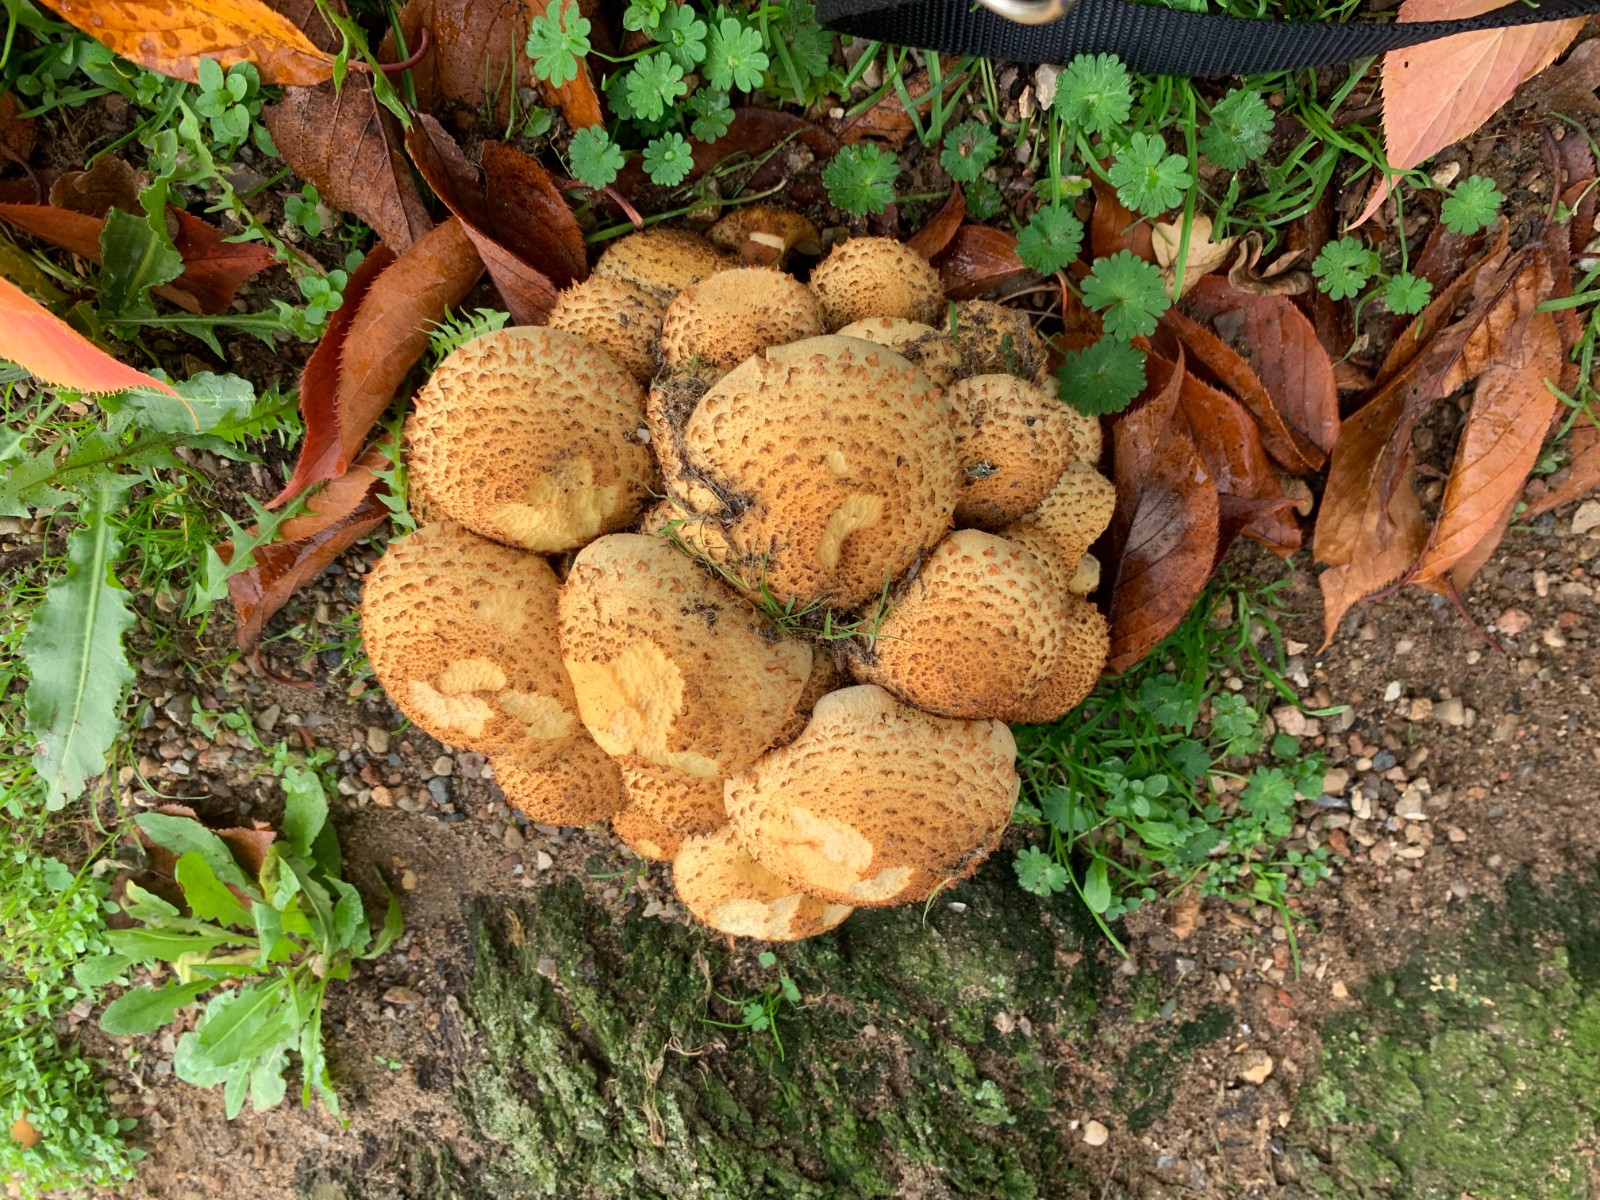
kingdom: Fungi
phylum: Basidiomycota
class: Agaricomycetes
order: Agaricales
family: Strophariaceae
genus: Pholiota
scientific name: Pholiota squarrosa
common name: krumskællet skælhat
